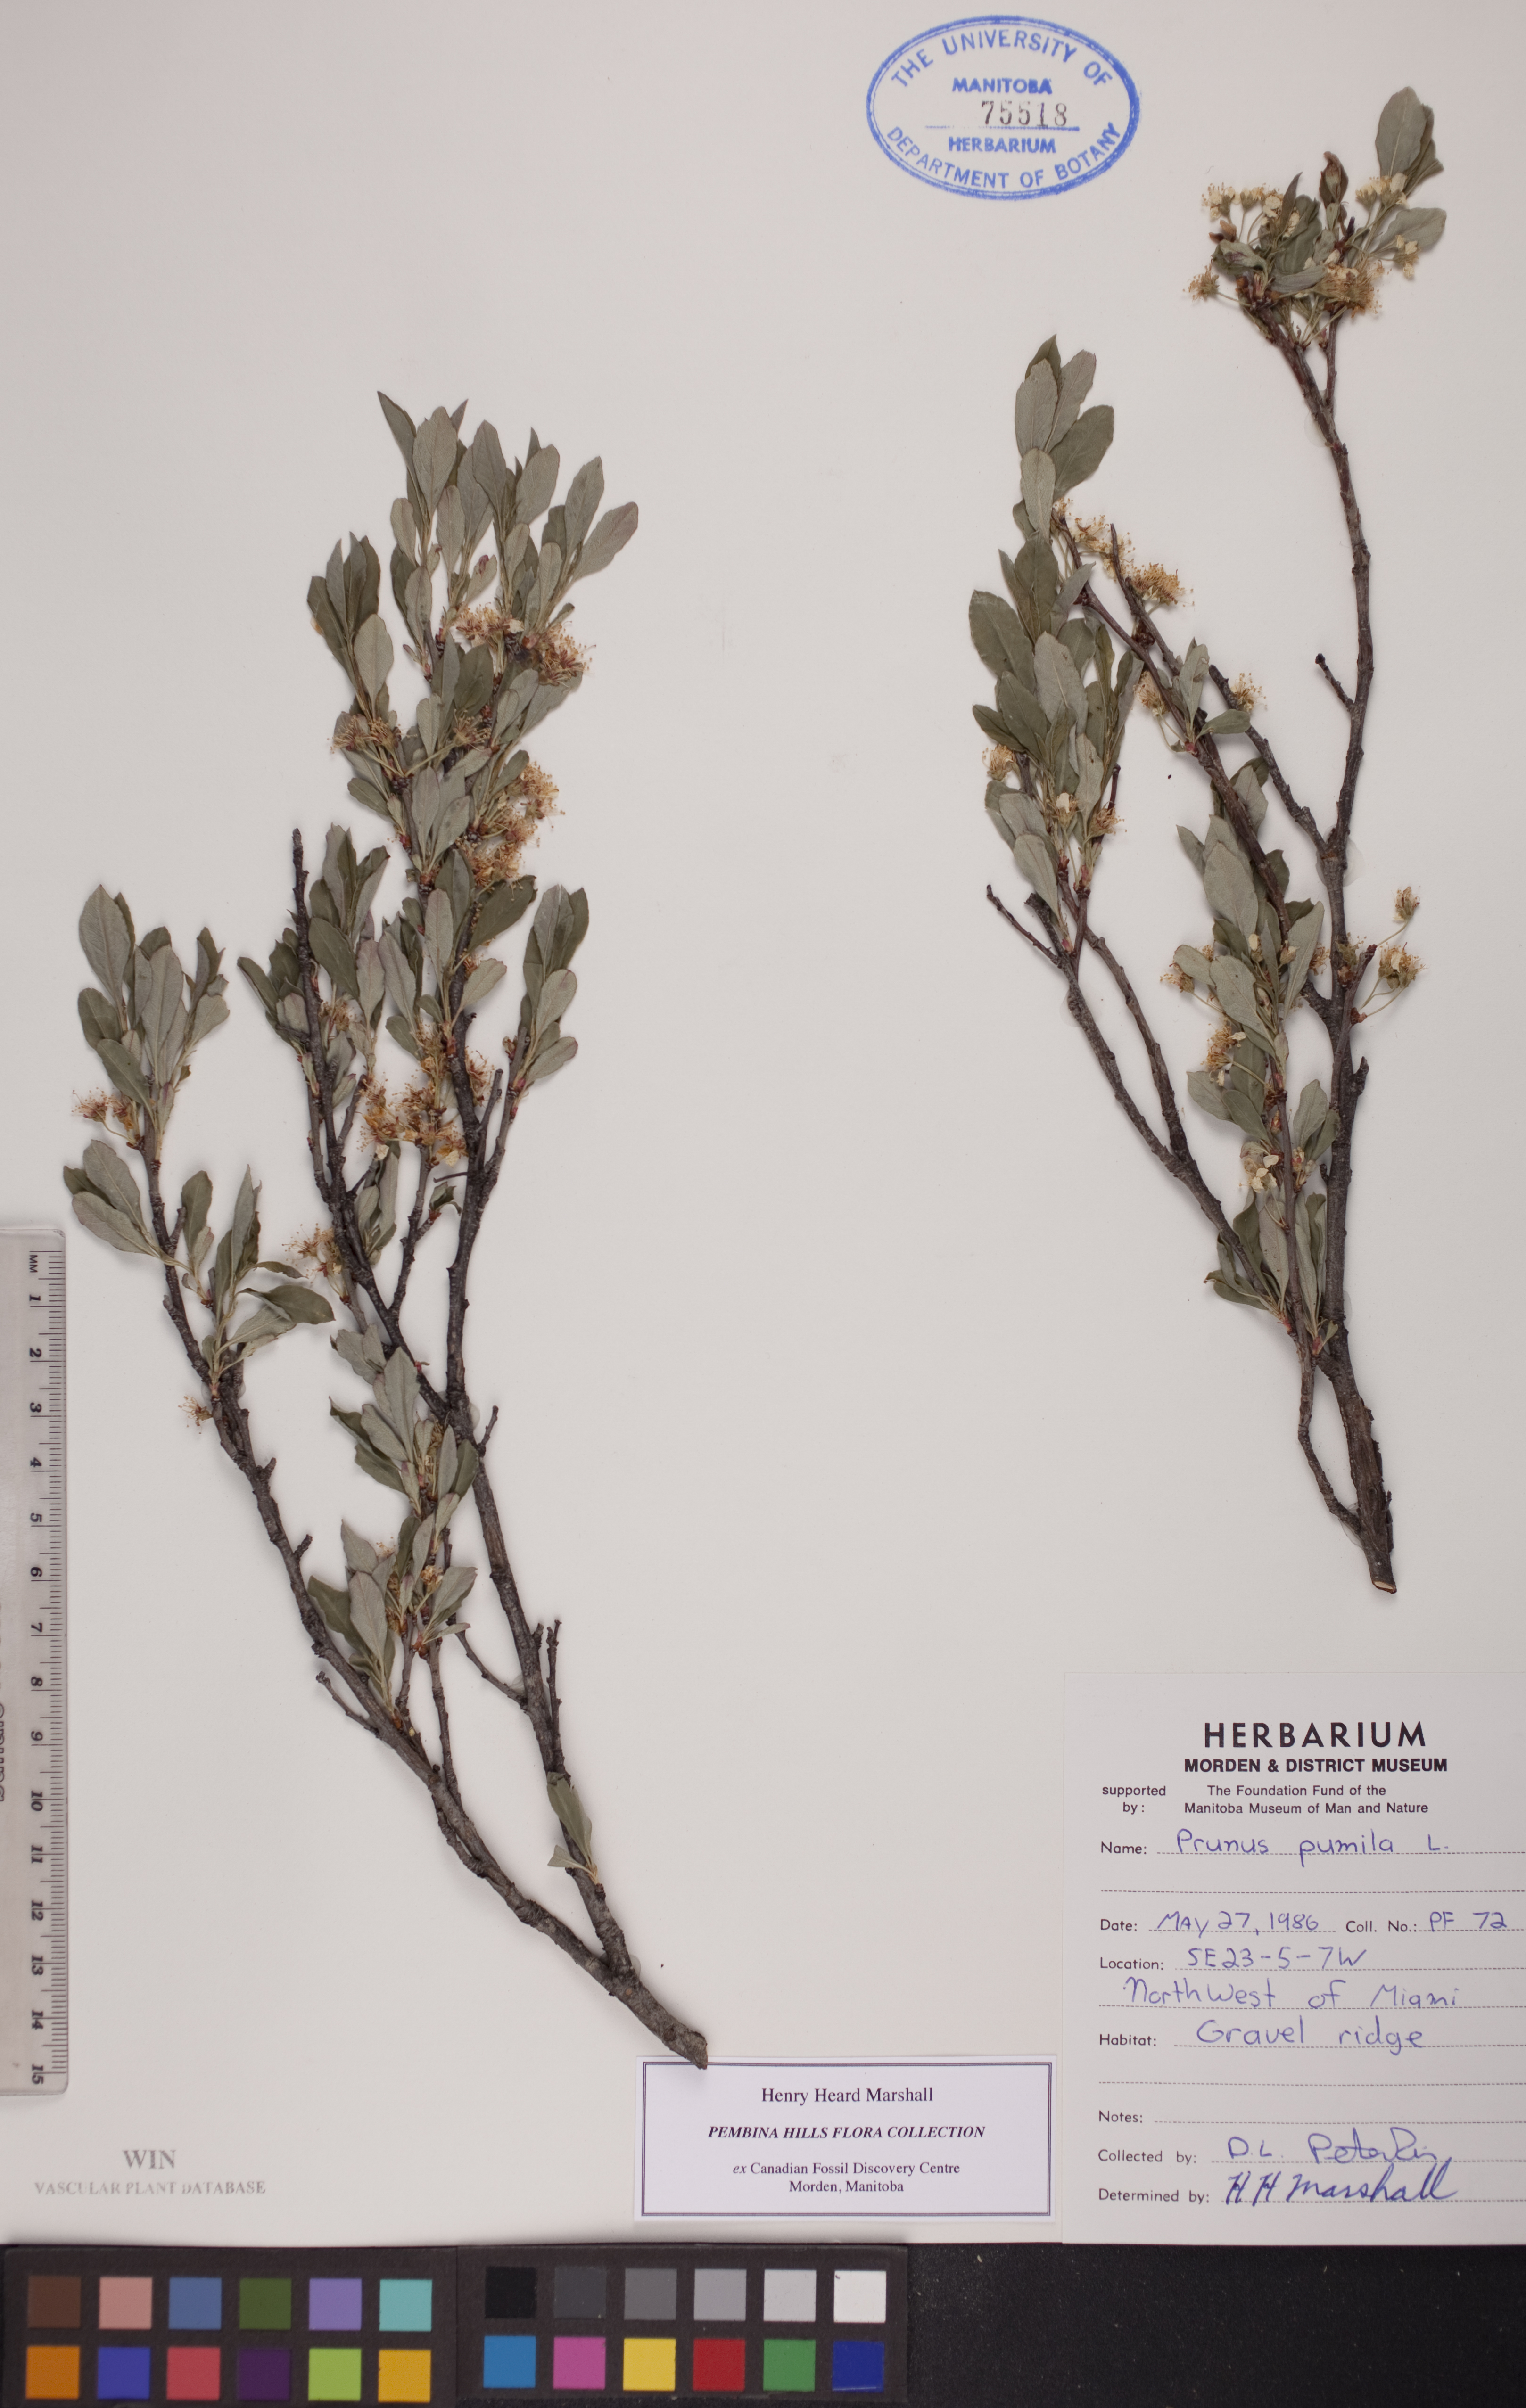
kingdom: Plantae
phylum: Tracheophyta
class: Magnoliopsida
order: Rosales
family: Rosaceae
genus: Prunus
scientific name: Prunus pumila
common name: Dwarf cherry
